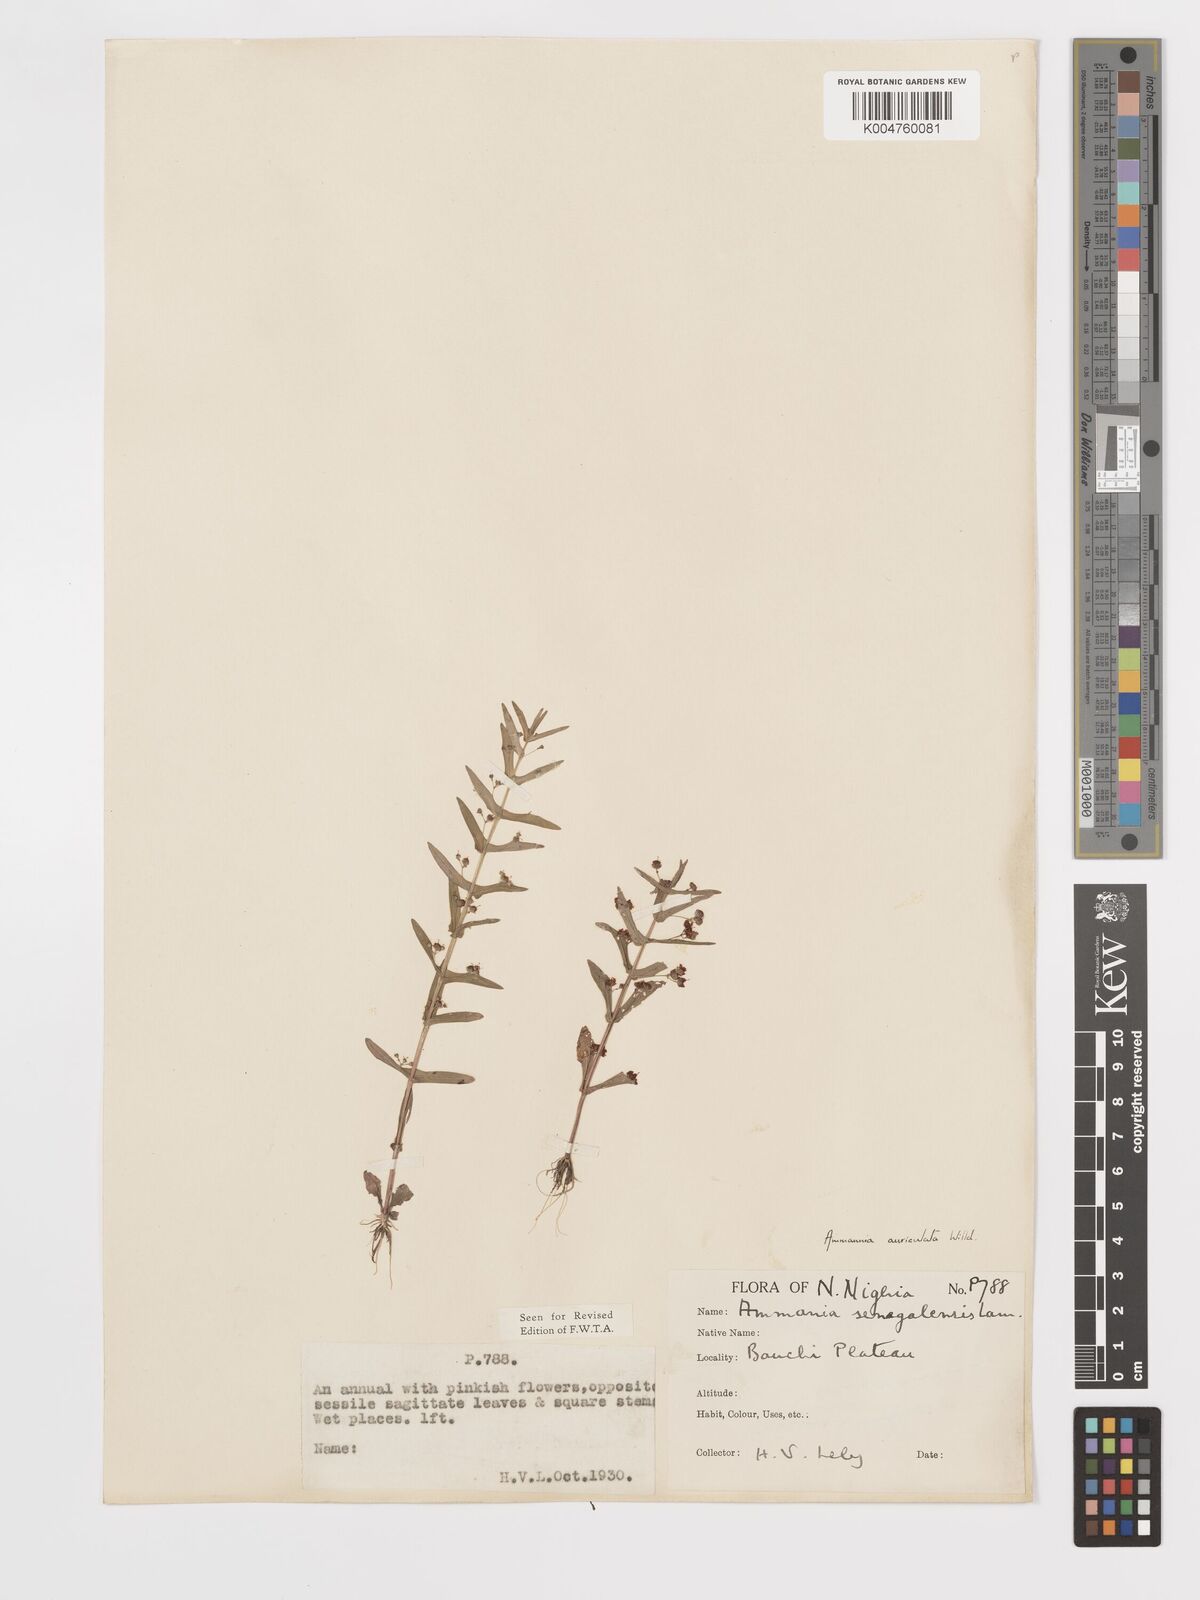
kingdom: Plantae
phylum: Tracheophyta
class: Magnoliopsida
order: Myrtales
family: Lythraceae
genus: Ammannia
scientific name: Ammannia auriculata
